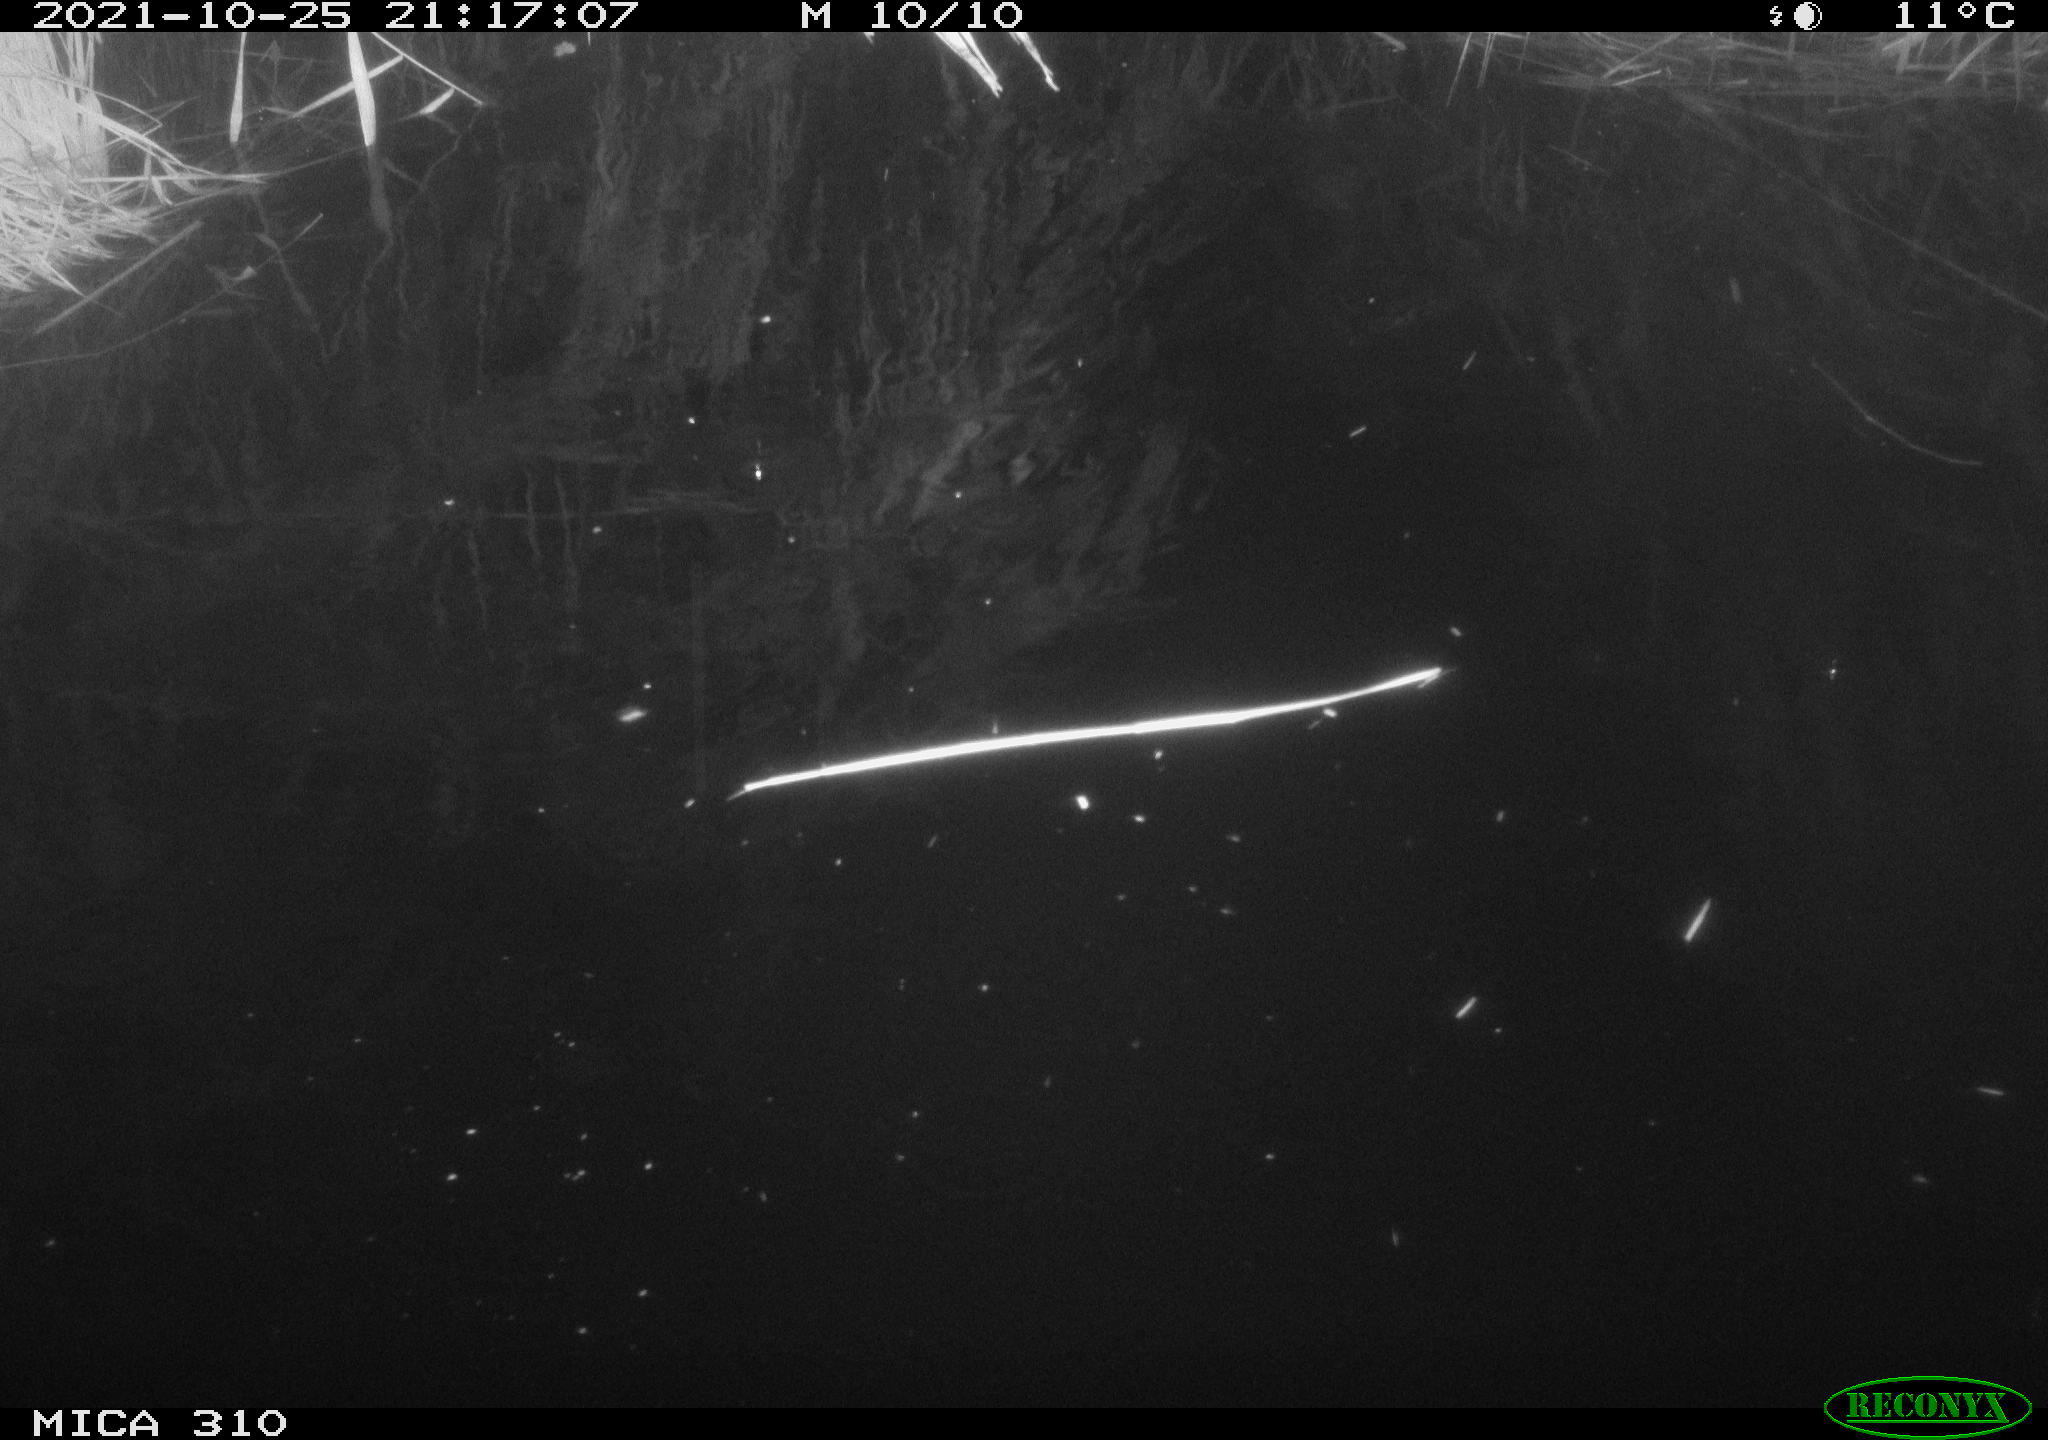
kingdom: Animalia
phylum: Chordata
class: Mammalia
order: Rodentia
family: Muridae
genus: Rattus
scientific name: Rattus norvegicus
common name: Brown rat
